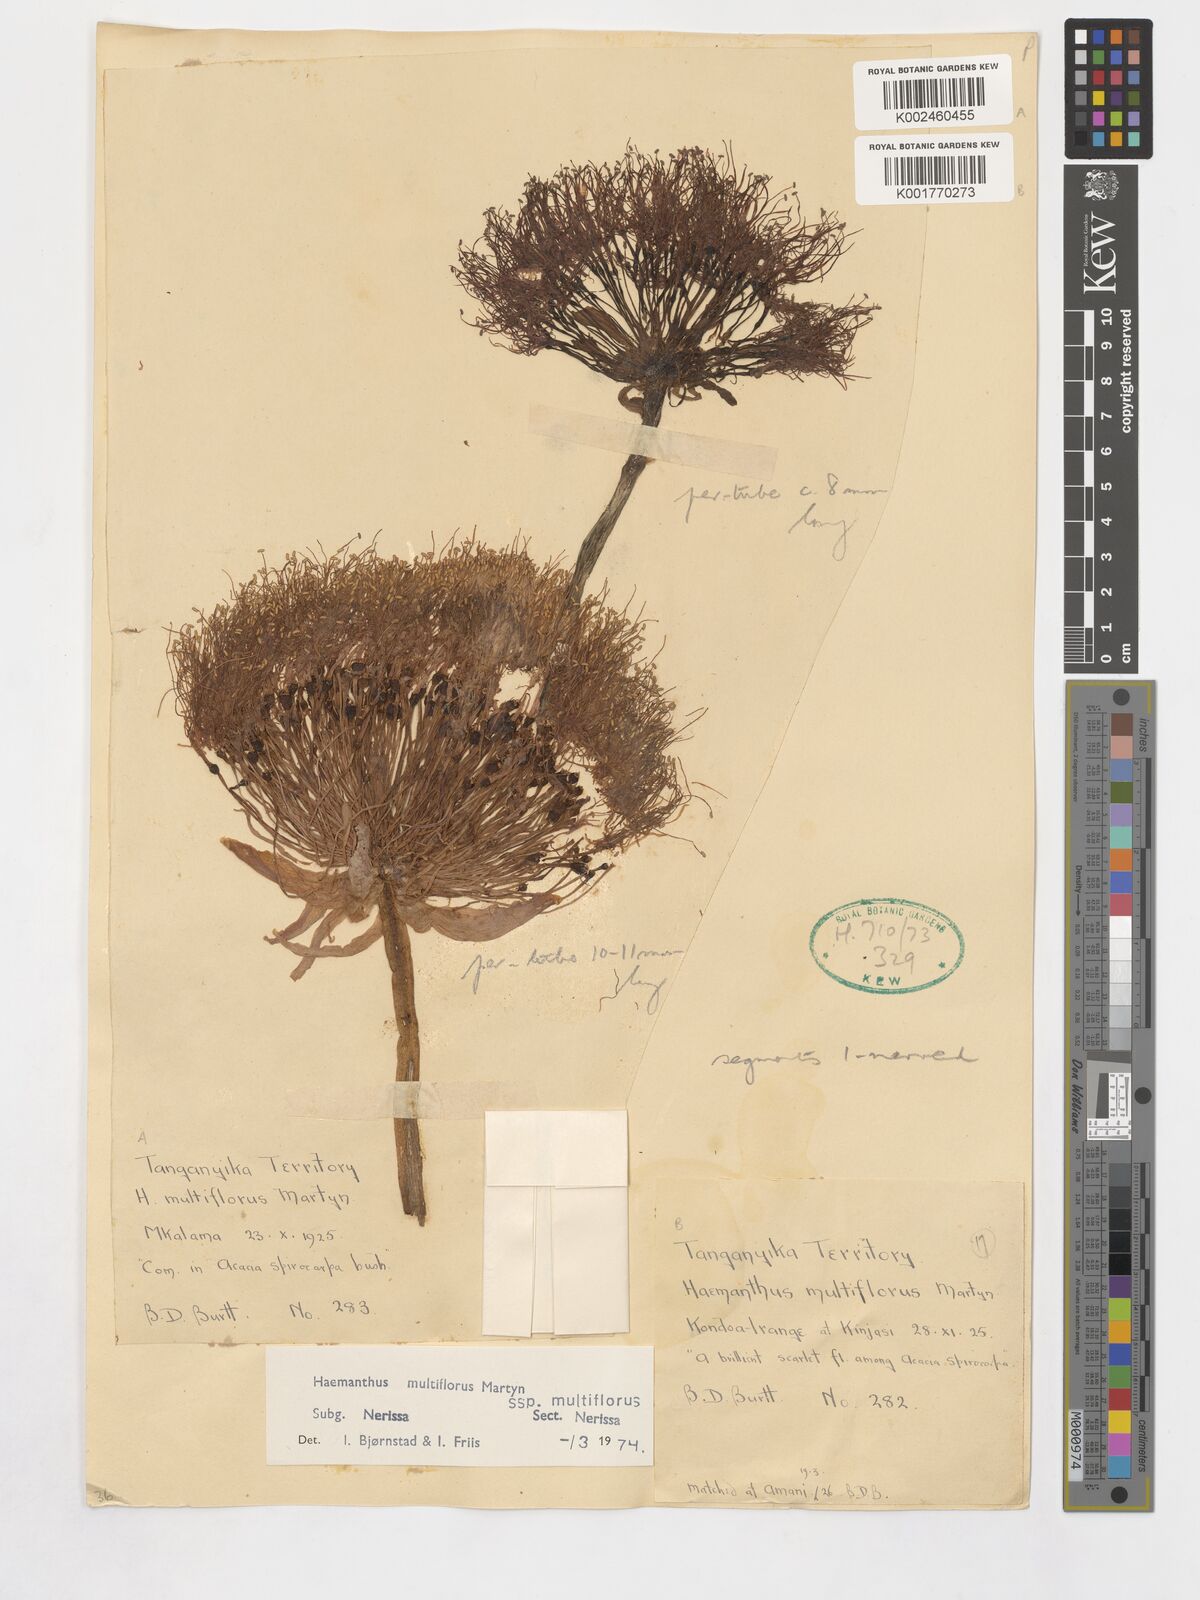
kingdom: Plantae
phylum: Tracheophyta
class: Liliopsida
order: Asparagales
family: Amaryllidaceae
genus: Scadoxus
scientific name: Scadoxus multiflorus
